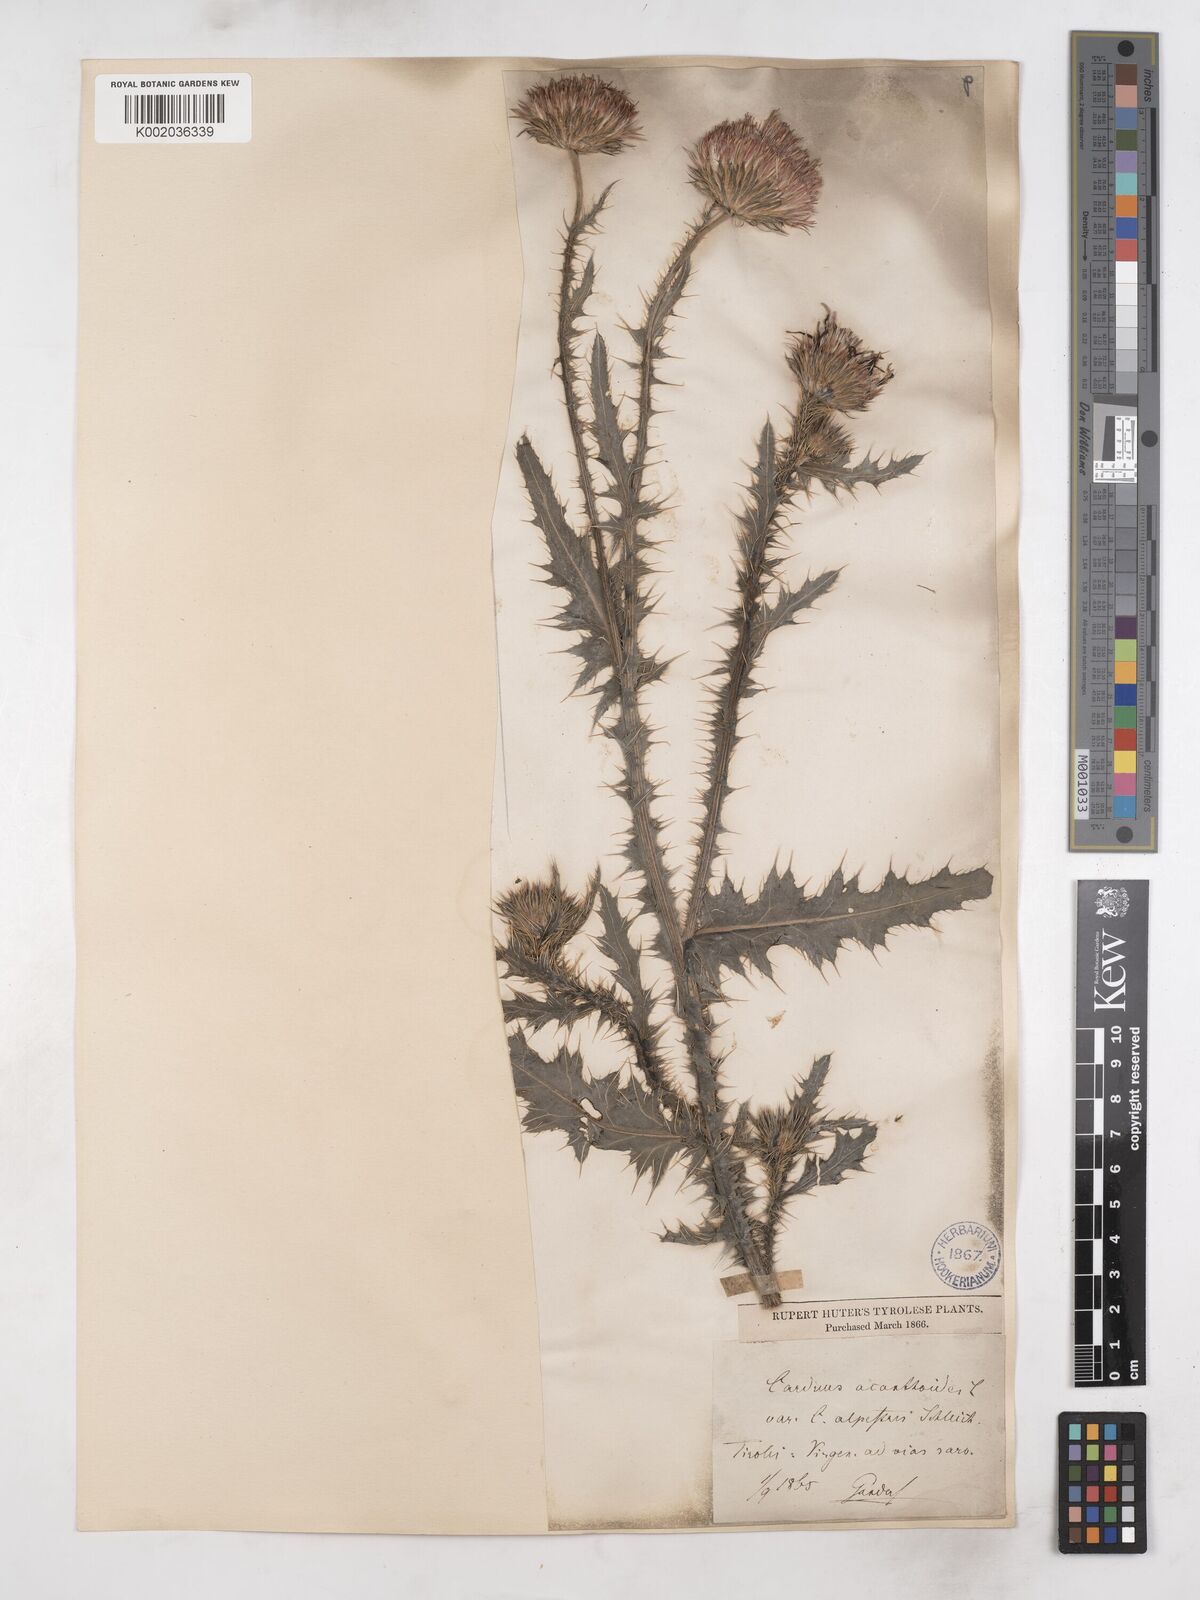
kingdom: Plantae
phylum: Tracheophyta
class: Magnoliopsida
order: Asterales
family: Asteraceae
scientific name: Asteraceae
